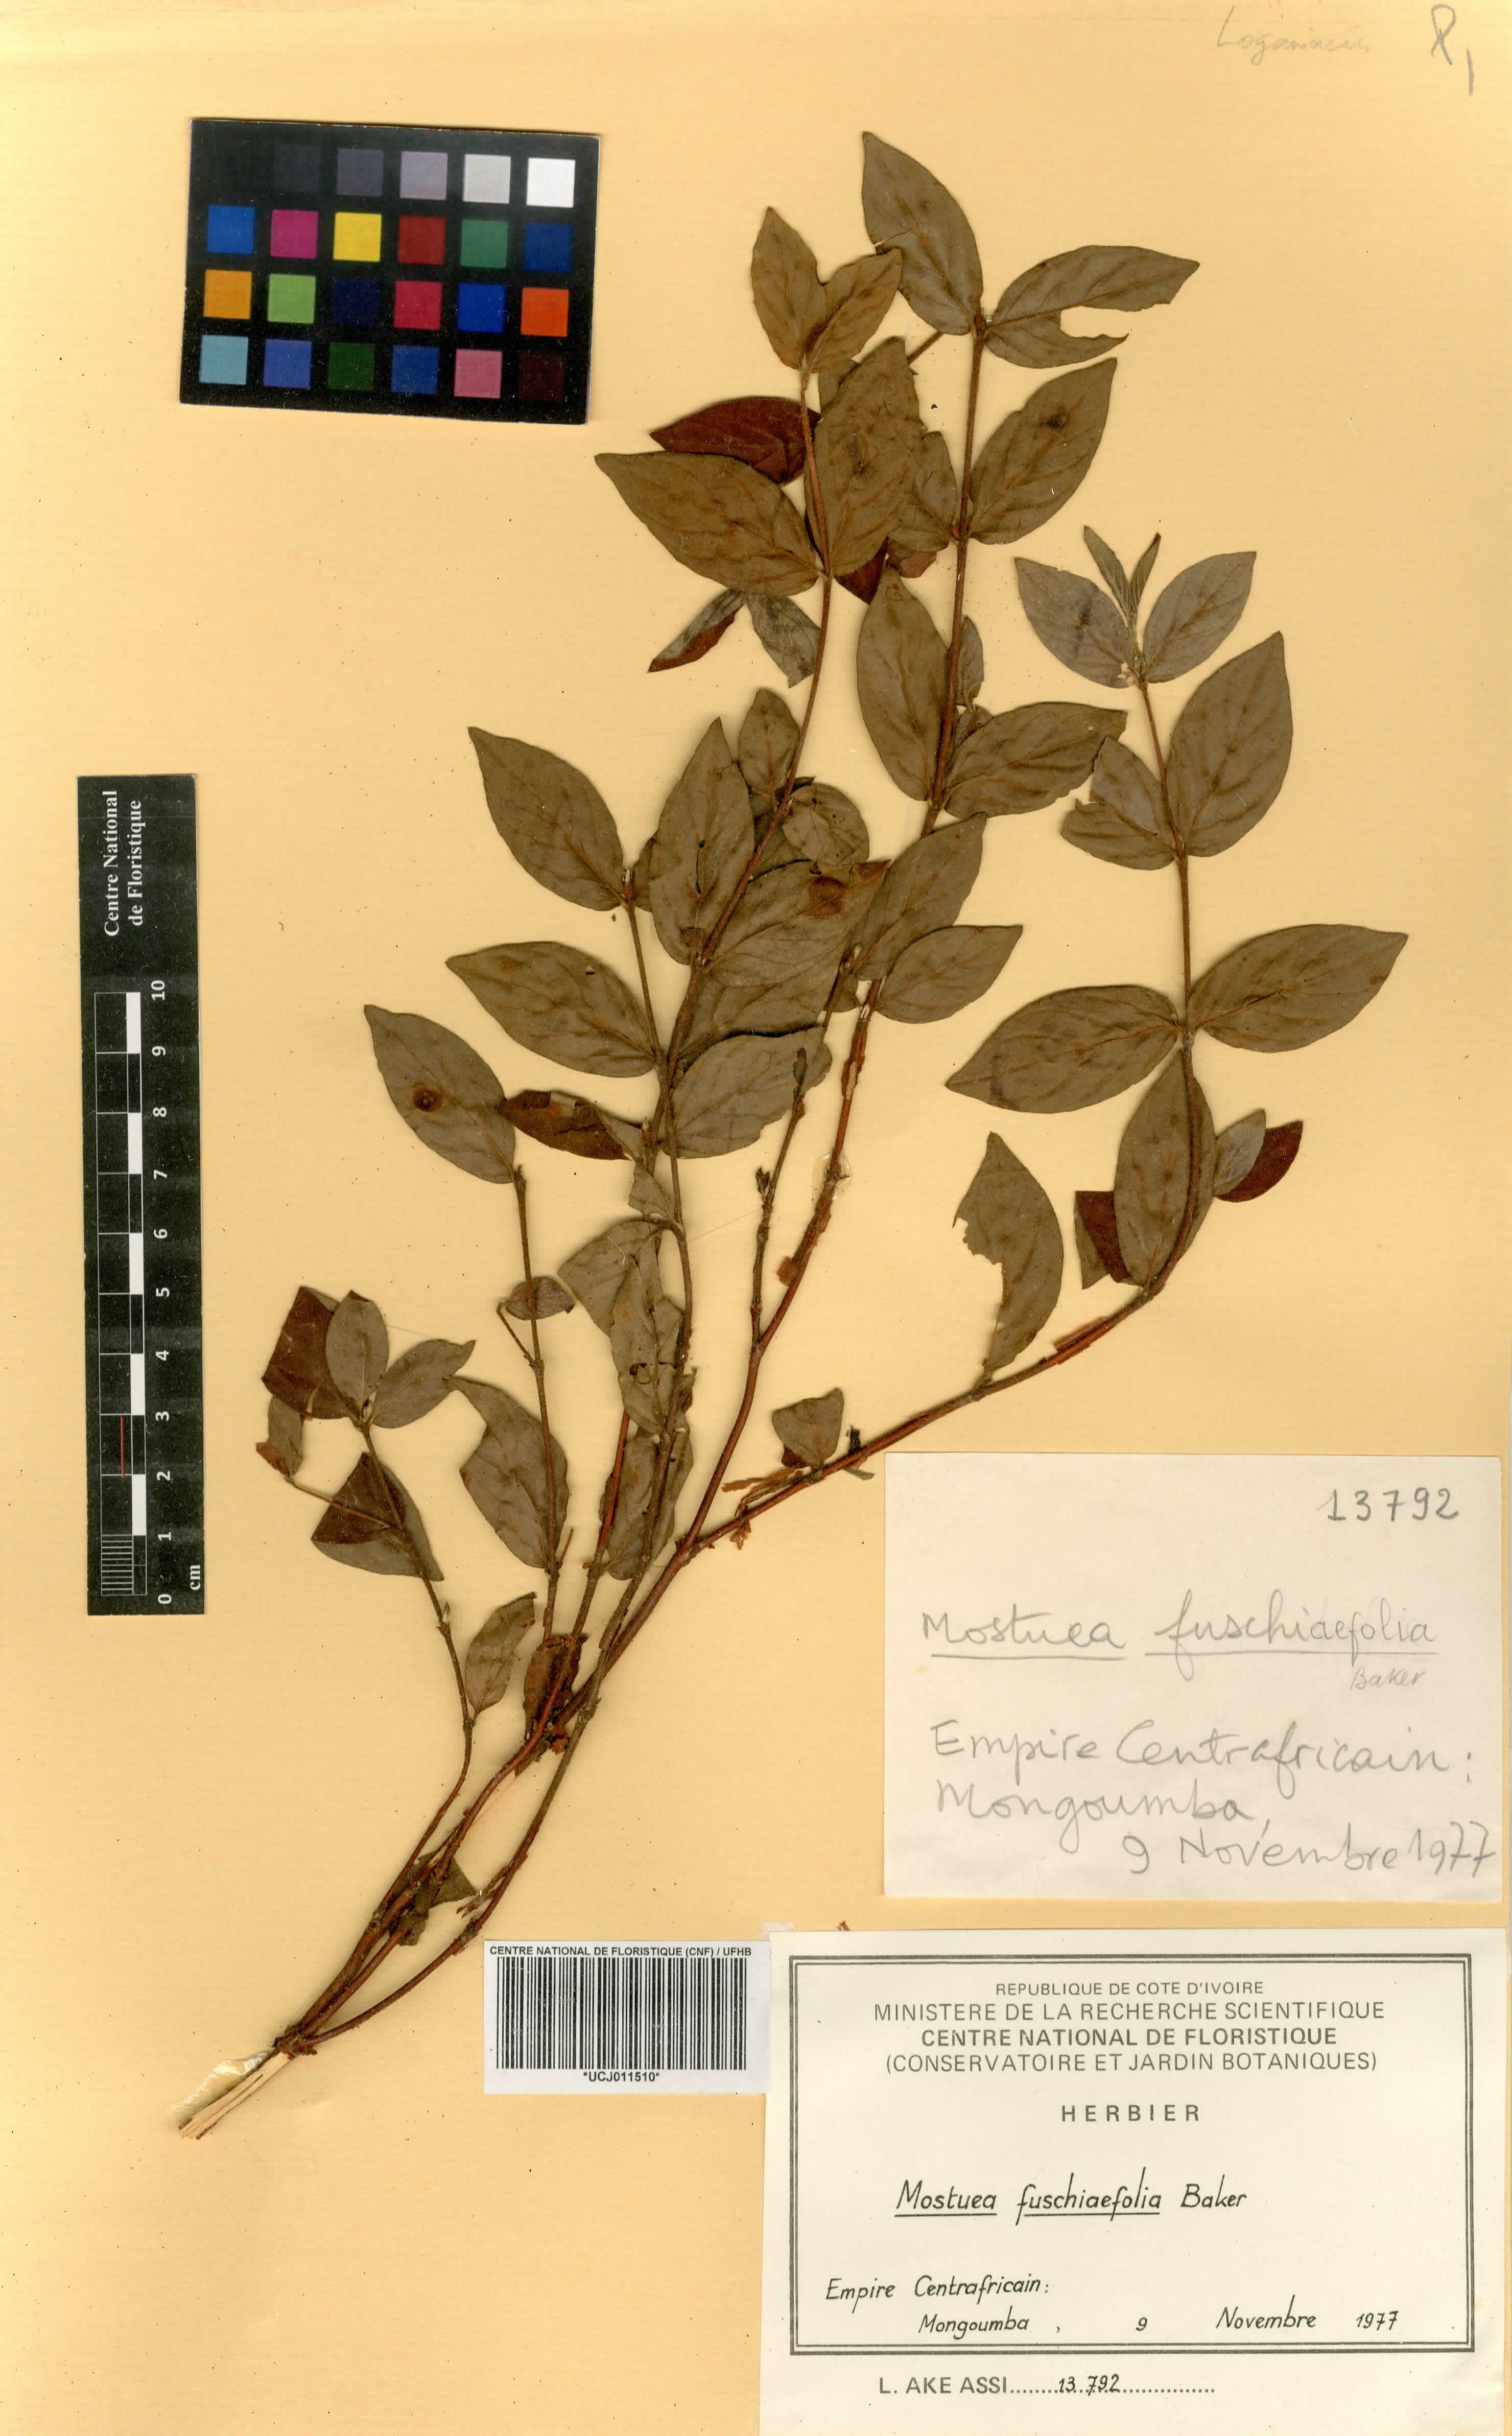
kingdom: Plantae
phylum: Tracheophyta
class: Magnoliopsida
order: Gentianales
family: Loganiaceae
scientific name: Loganiaceae
